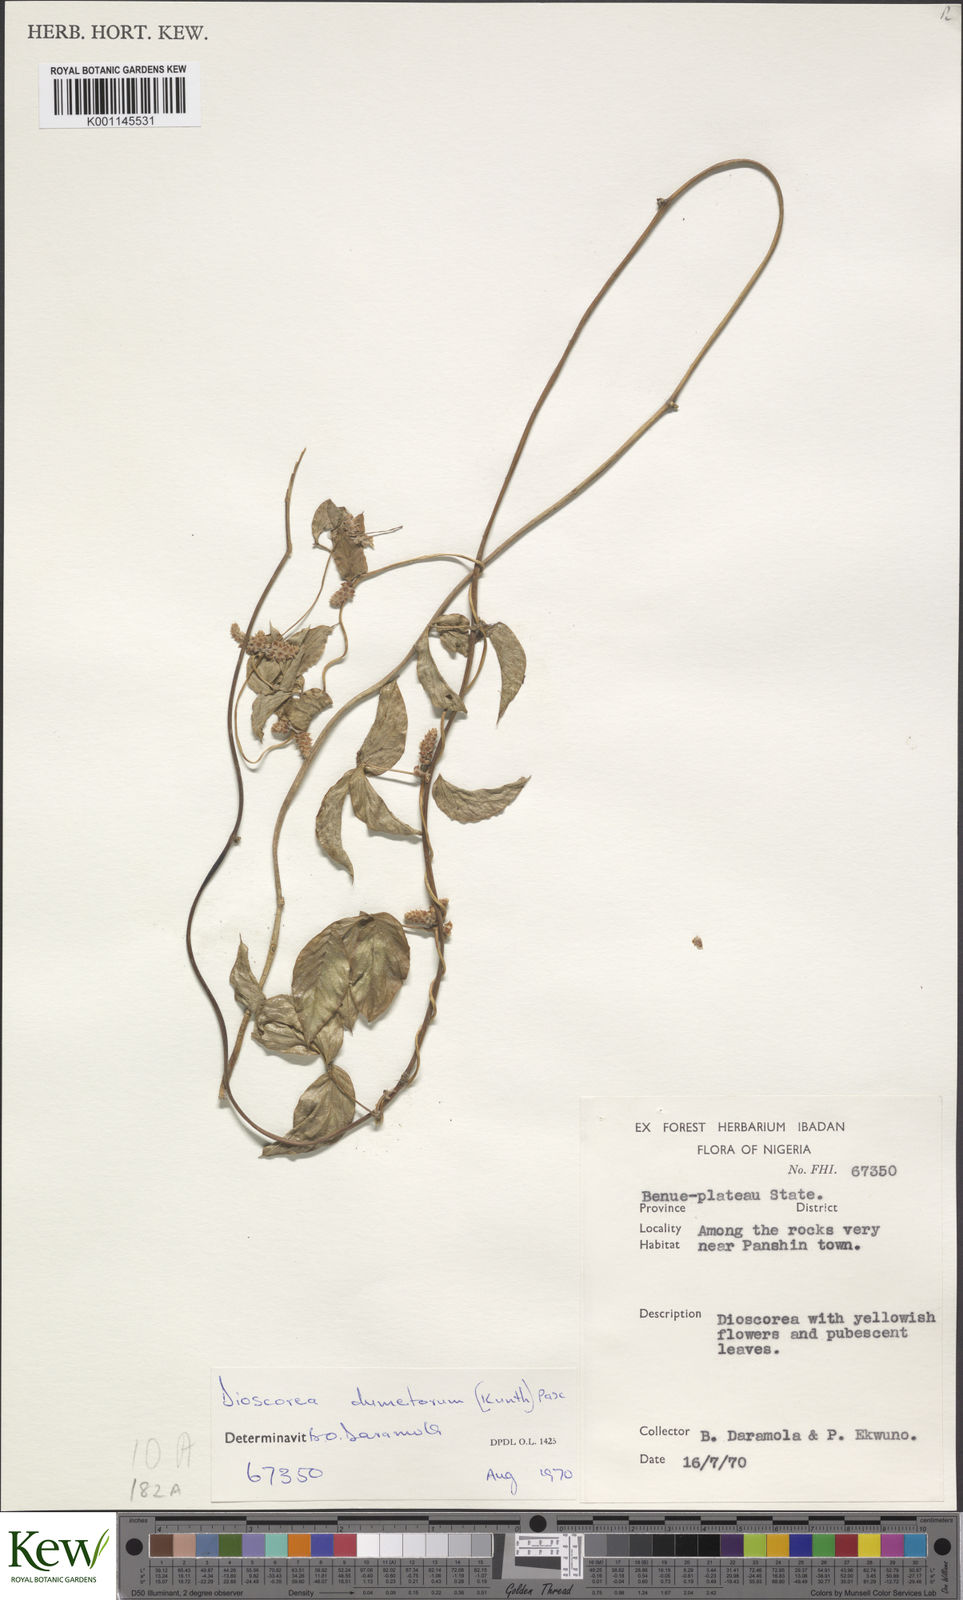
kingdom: Plantae
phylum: Tracheophyta
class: Liliopsida
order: Dioscoreales
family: Dioscoreaceae
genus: Dioscorea
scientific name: Dioscorea quartiniana
